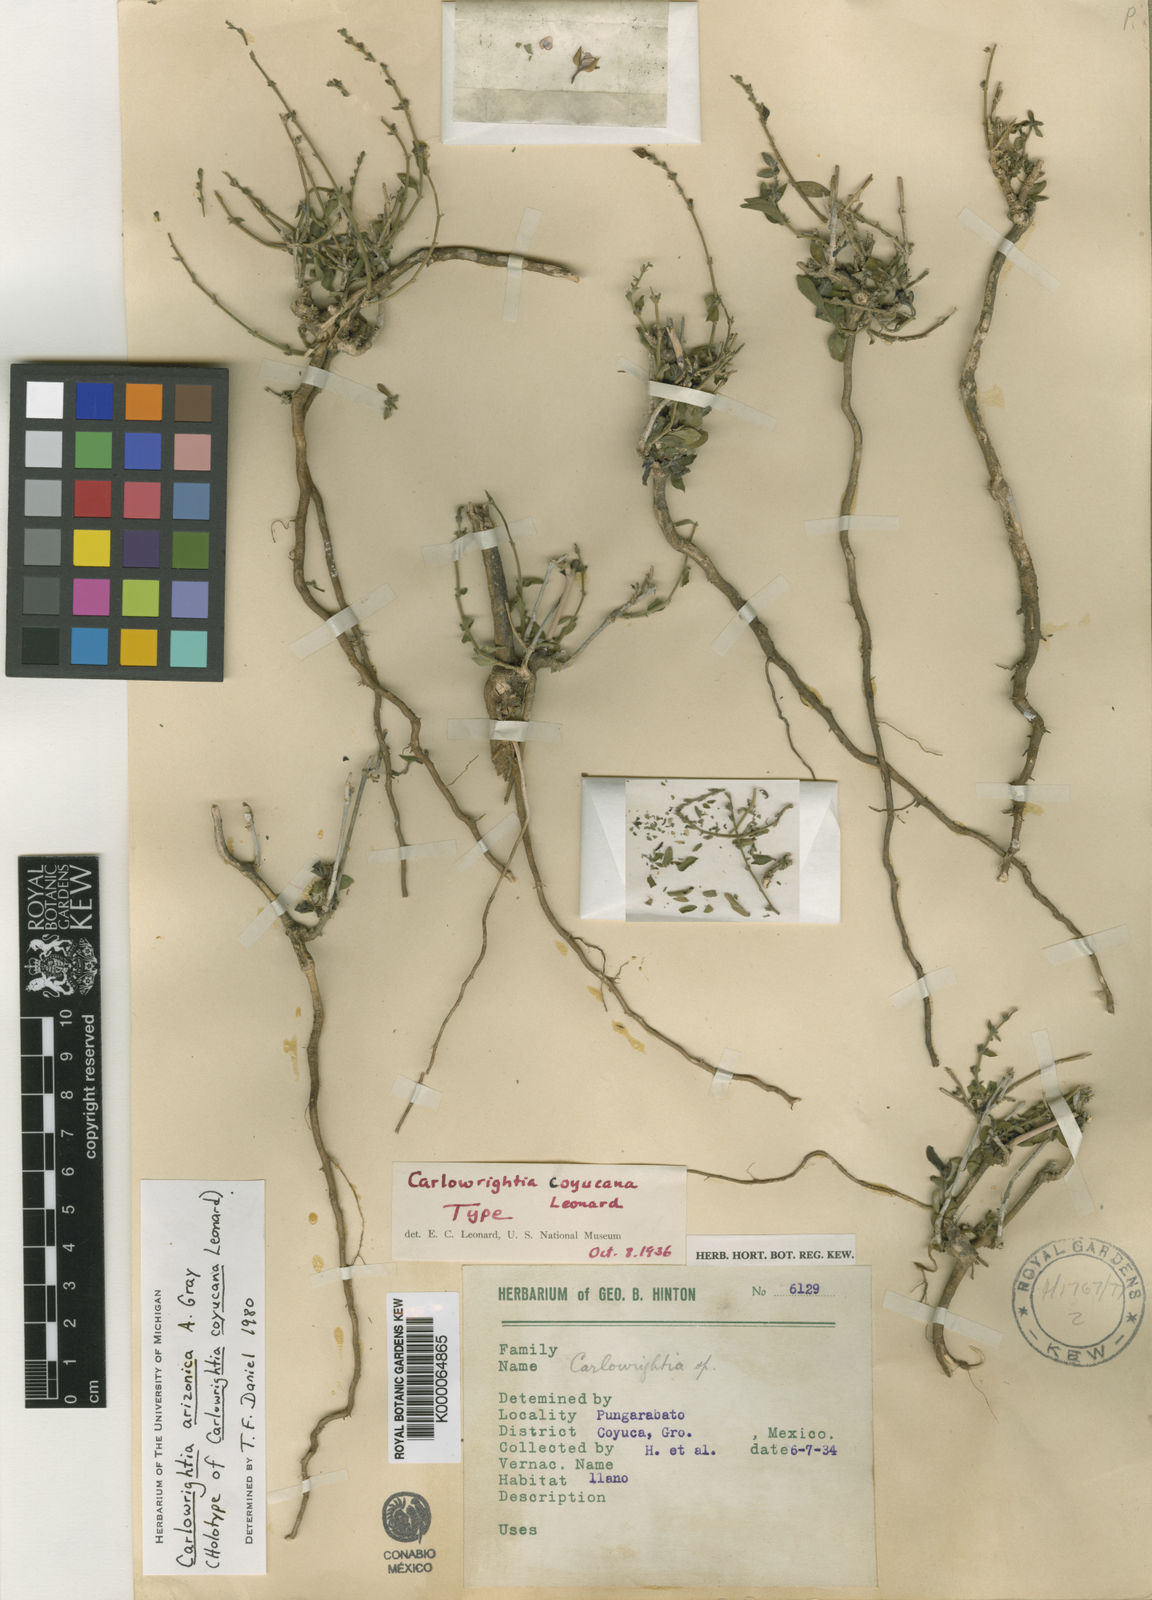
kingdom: Plantae
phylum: Tracheophyta
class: Magnoliopsida
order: Lamiales
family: Acanthaceae
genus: Carlowrightia
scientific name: Carlowrightia arizonica
